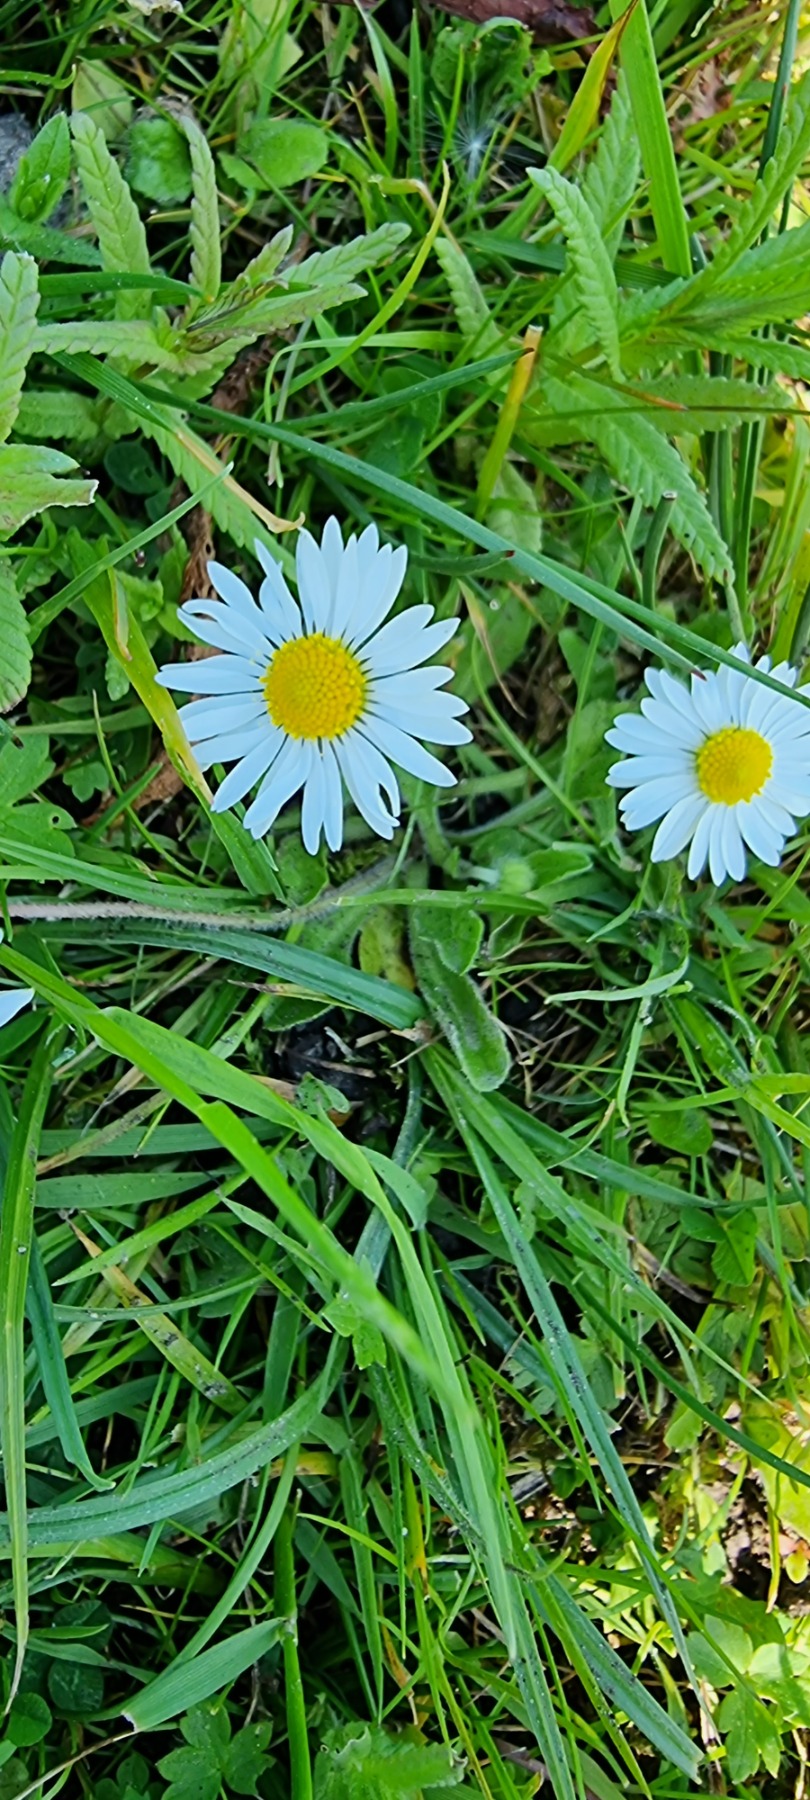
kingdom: Plantae
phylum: Tracheophyta
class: Magnoliopsida
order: Asterales
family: Asteraceae
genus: Bellis
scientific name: Bellis perennis
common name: Tusindfryd
